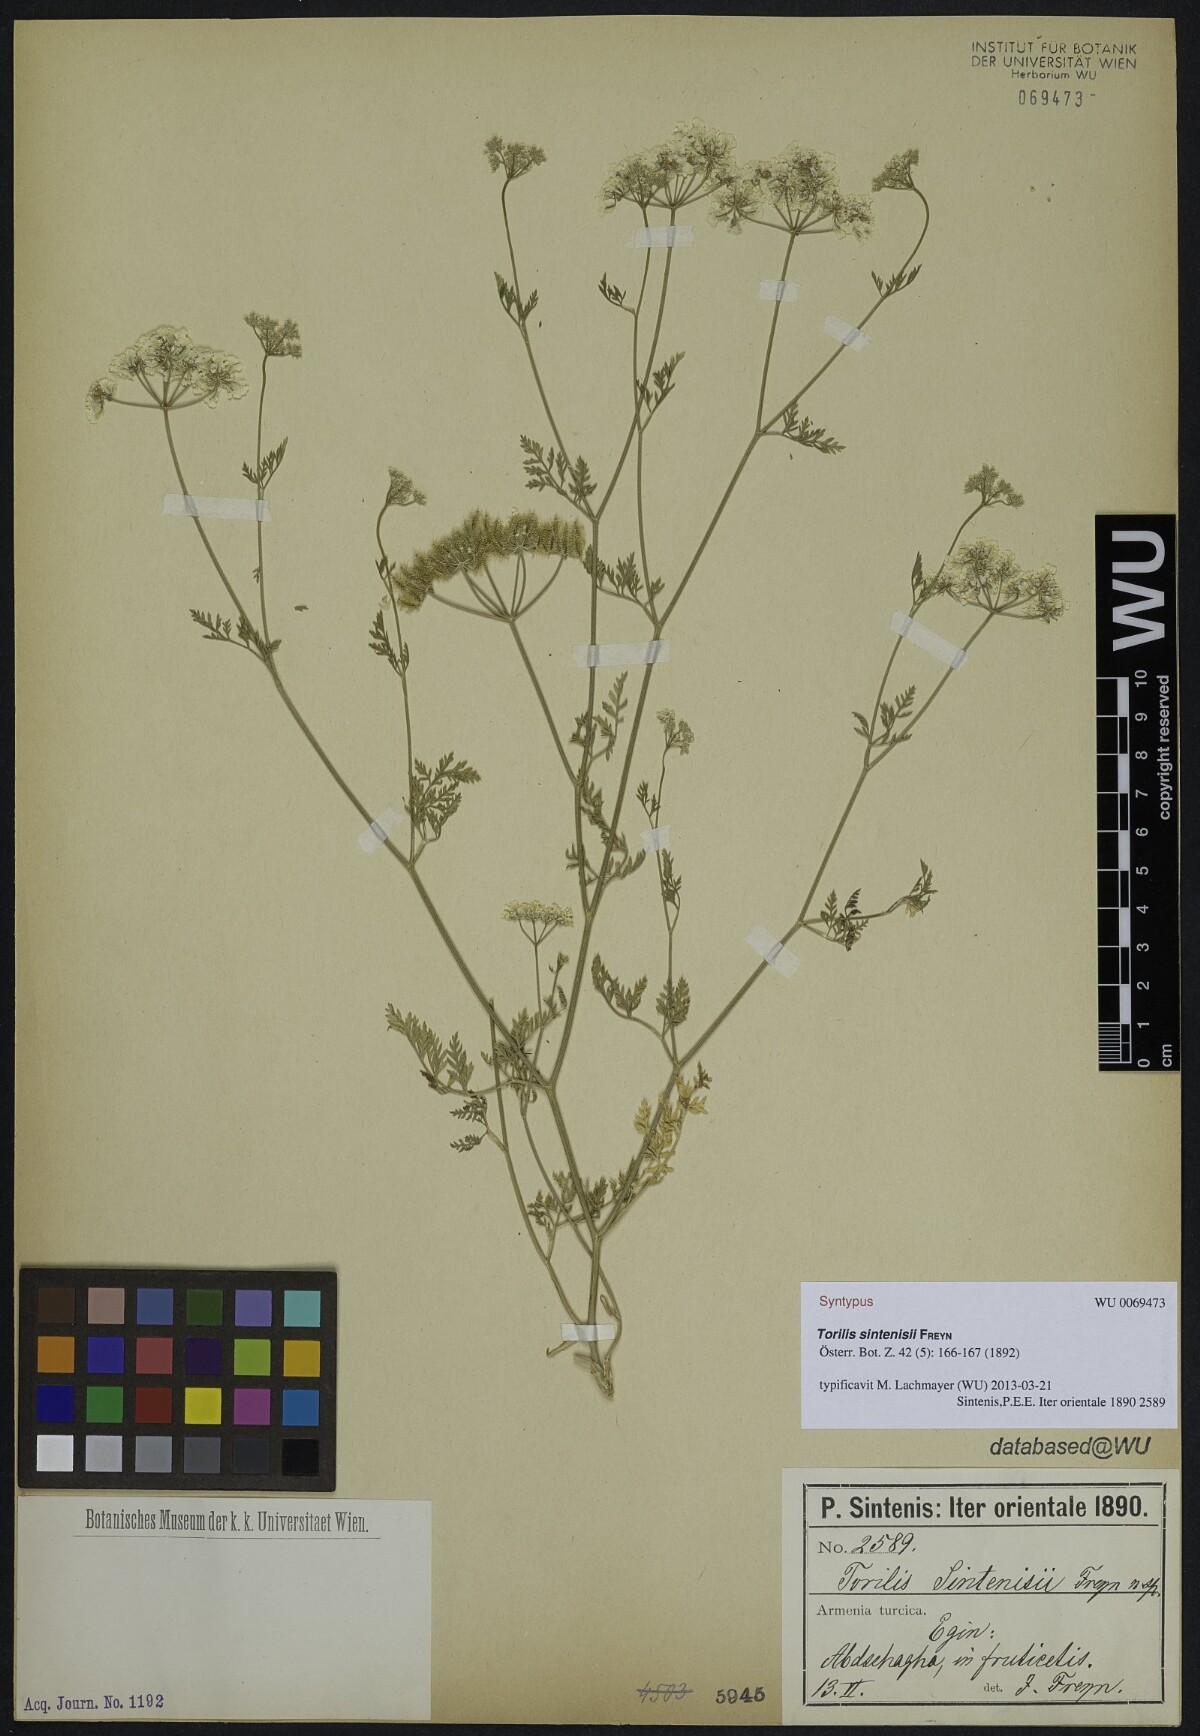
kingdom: Plantae
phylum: Tracheophyta
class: Magnoliopsida
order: Apiales
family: Apiaceae
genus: Torilis
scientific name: Torilis leptocarpa
